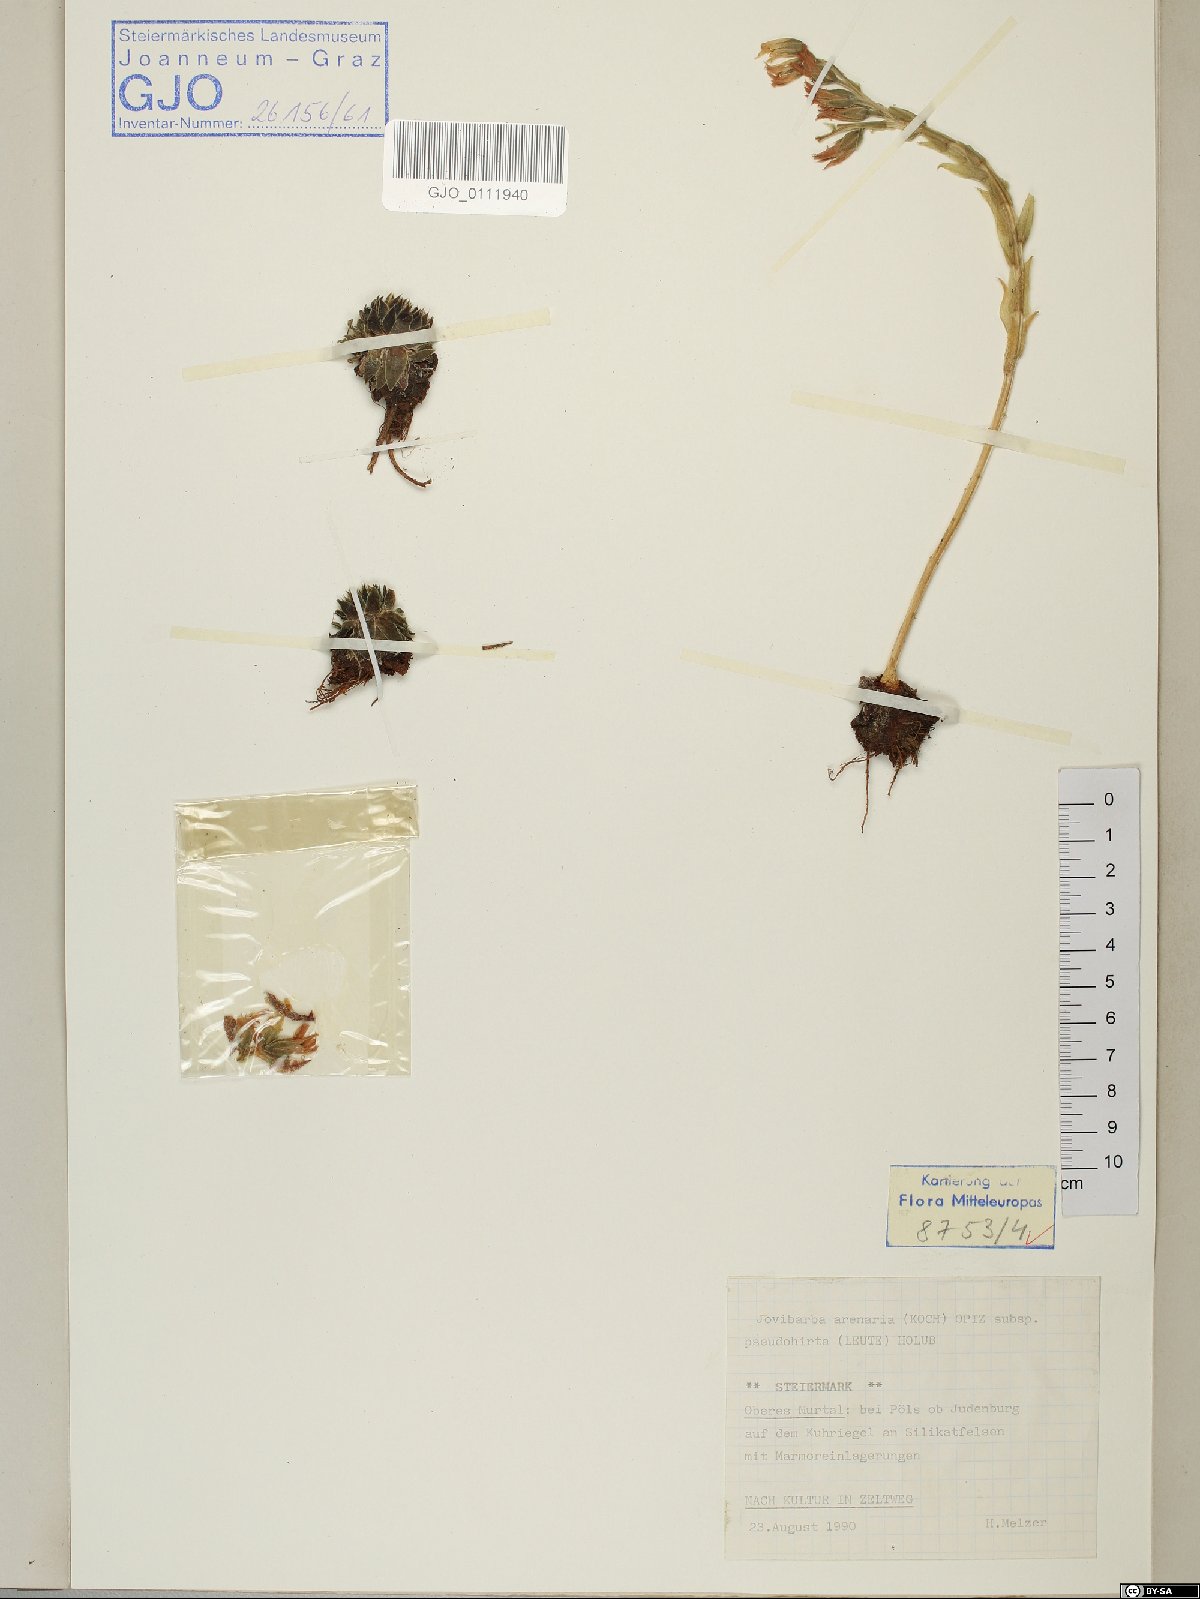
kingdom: Plantae
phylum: Tracheophyta
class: Magnoliopsida
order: Saxifragales
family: Crassulaceae
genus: Sempervivum
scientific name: Sempervivum globiferum
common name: Rolling hen-and-chicks
